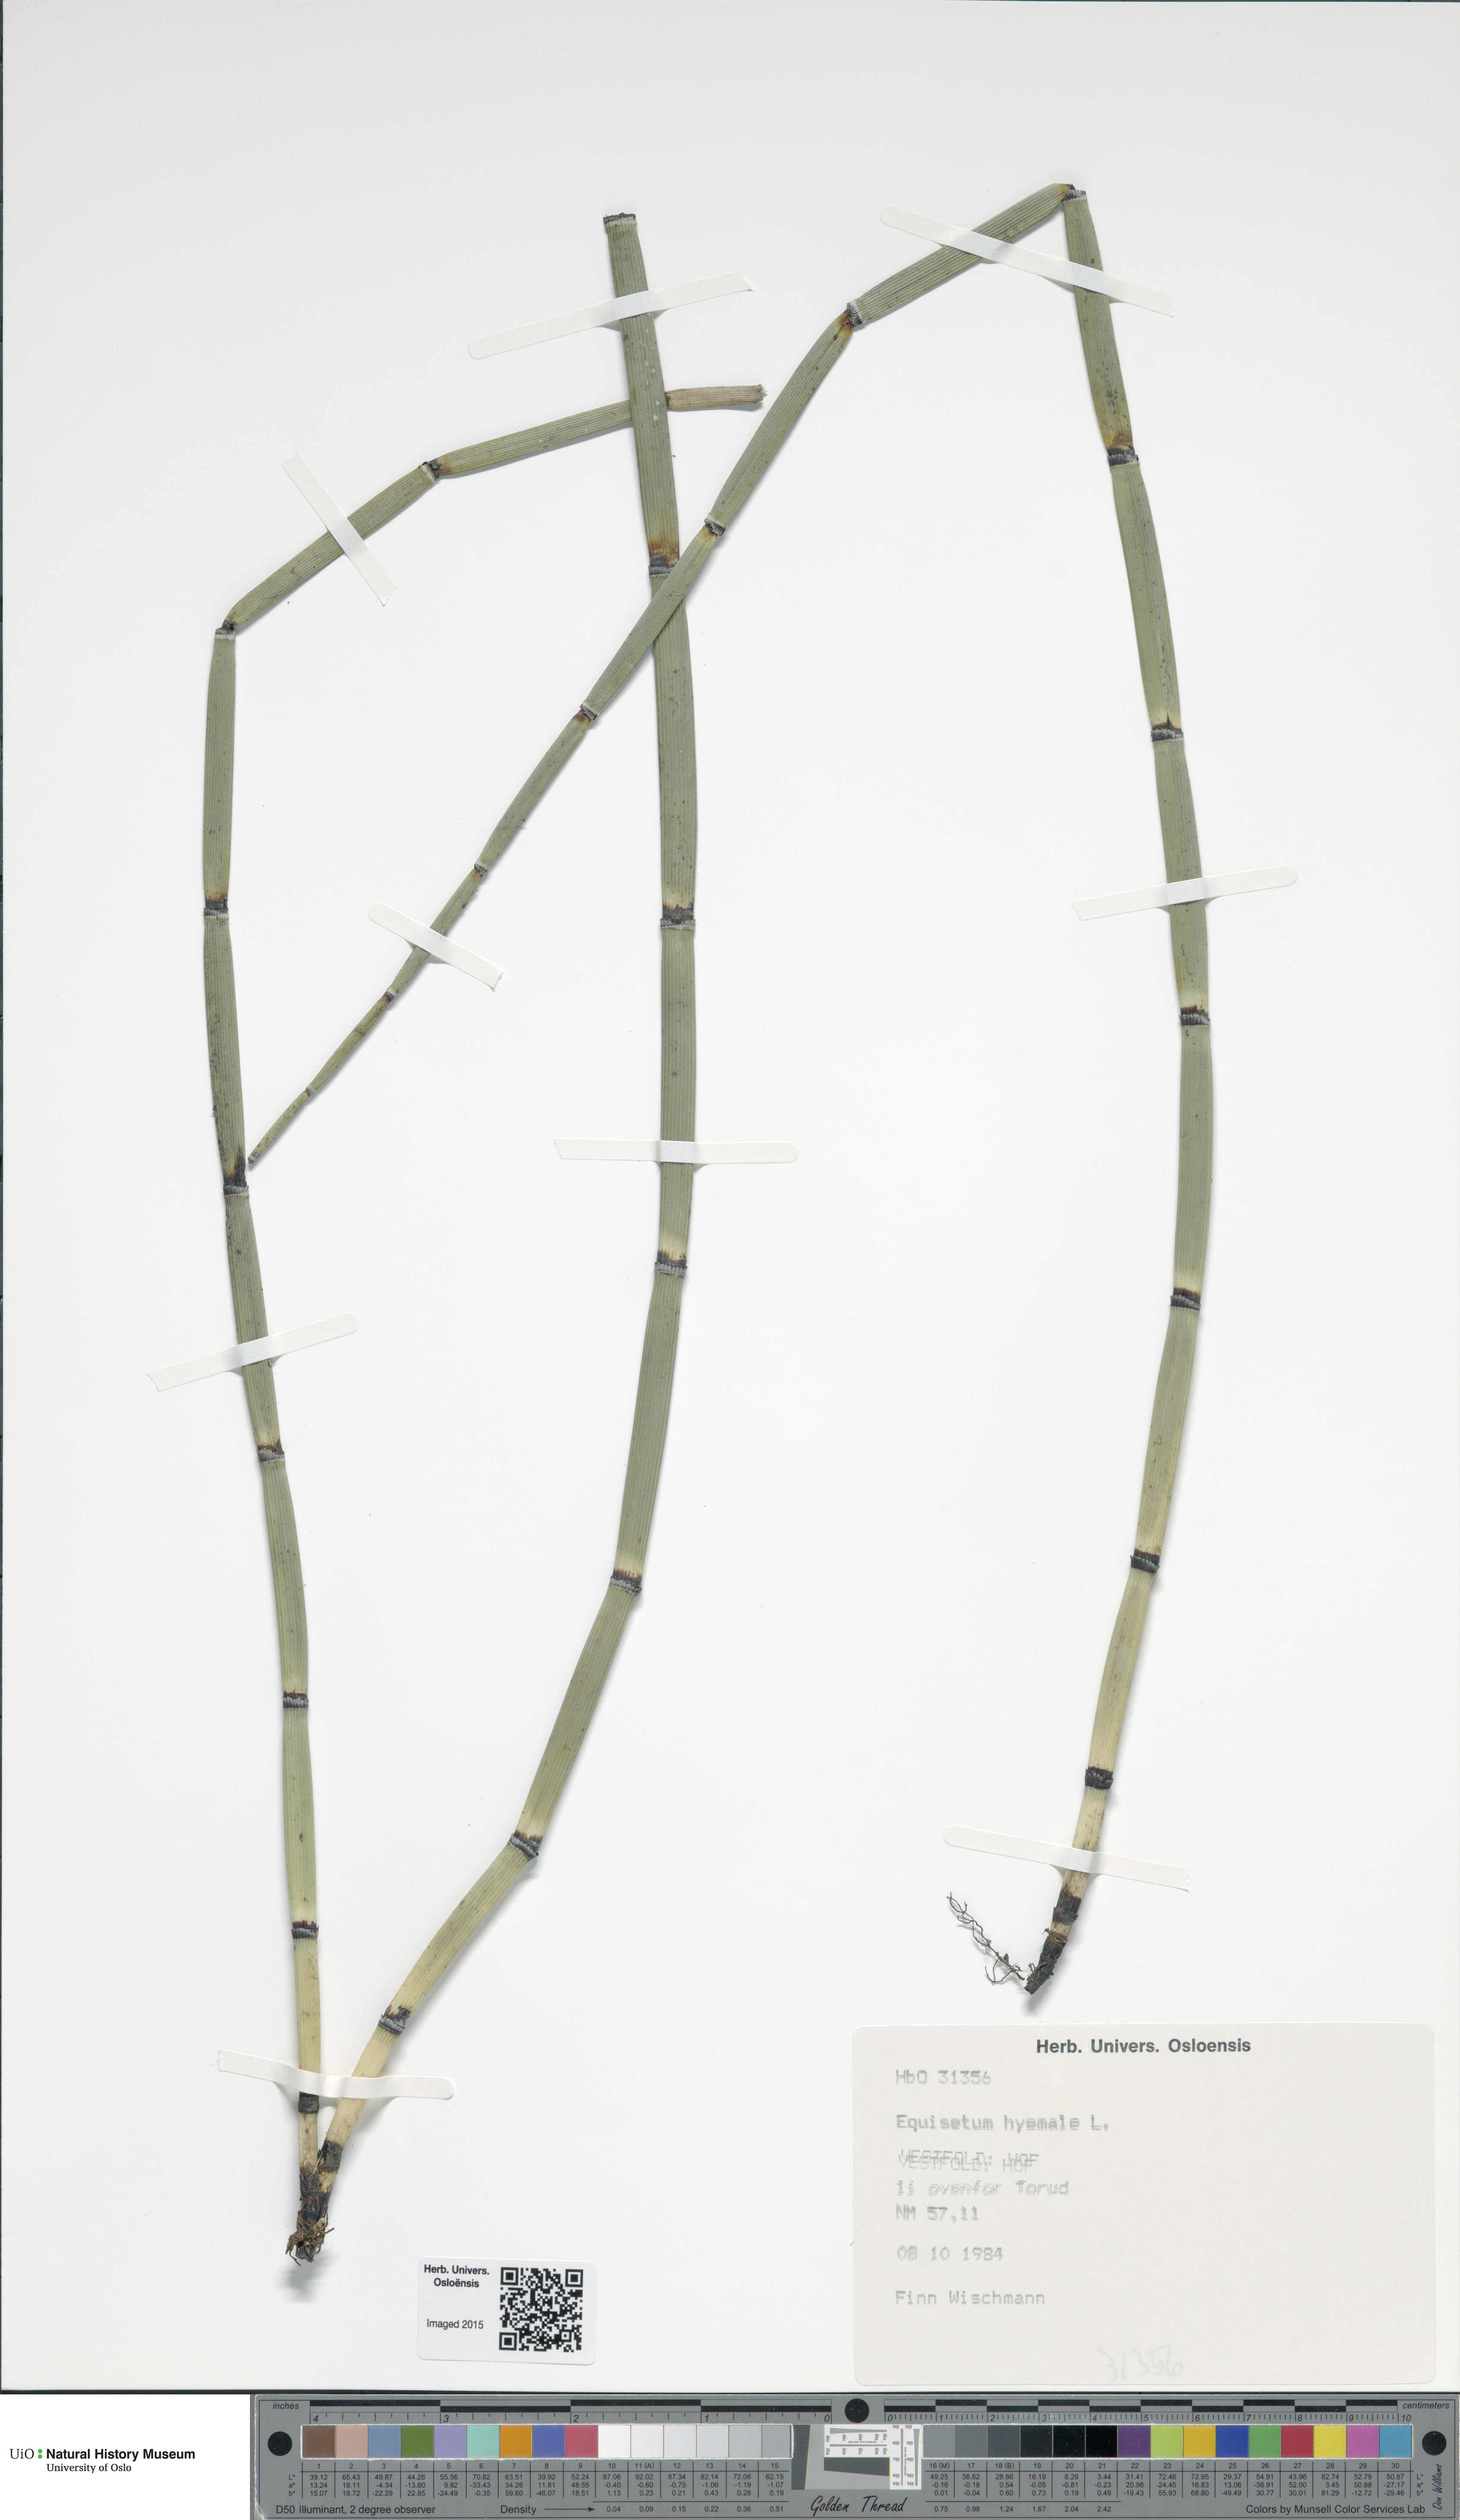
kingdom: Plantae
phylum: Tracheophyta
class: Polypodiopsida
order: Equisetales
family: Equisetaceae
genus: Equisetum
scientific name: Equisetum hyemale
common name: Rough horsetail
